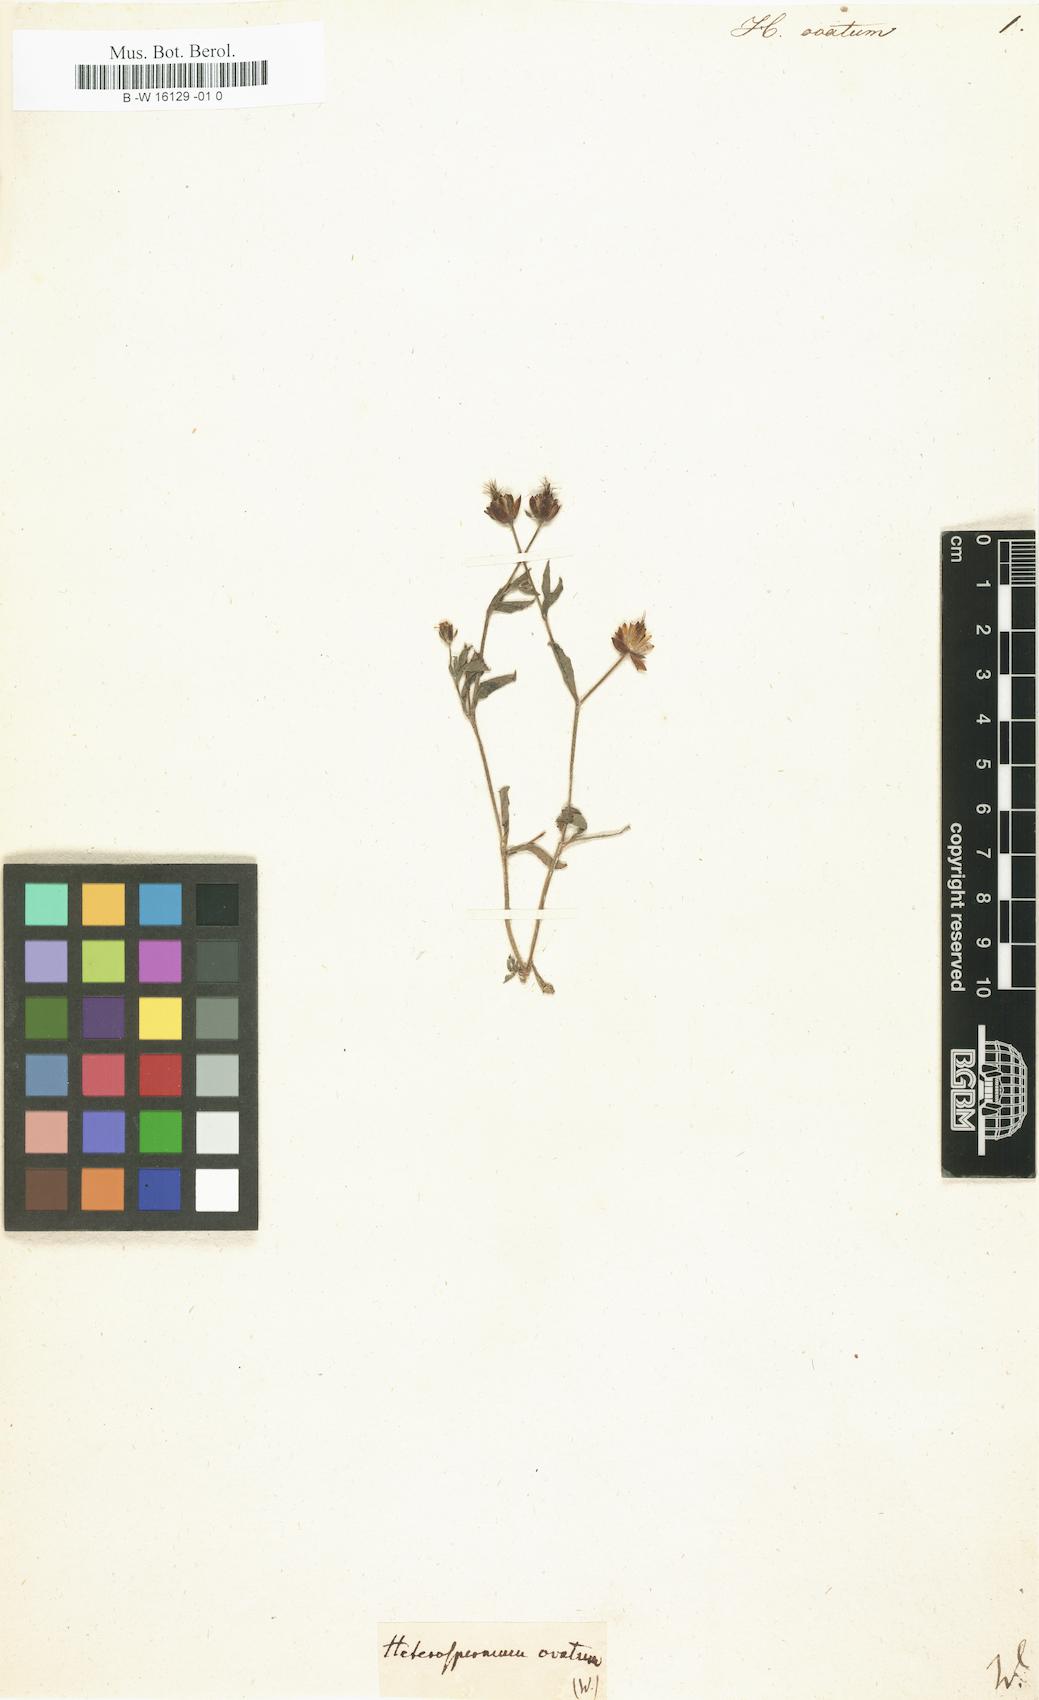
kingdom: Plantae
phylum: Tracheophyta
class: Magnoliopsida
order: Asterales
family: Asteraceae
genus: Heterosperma
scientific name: Heterosperma
